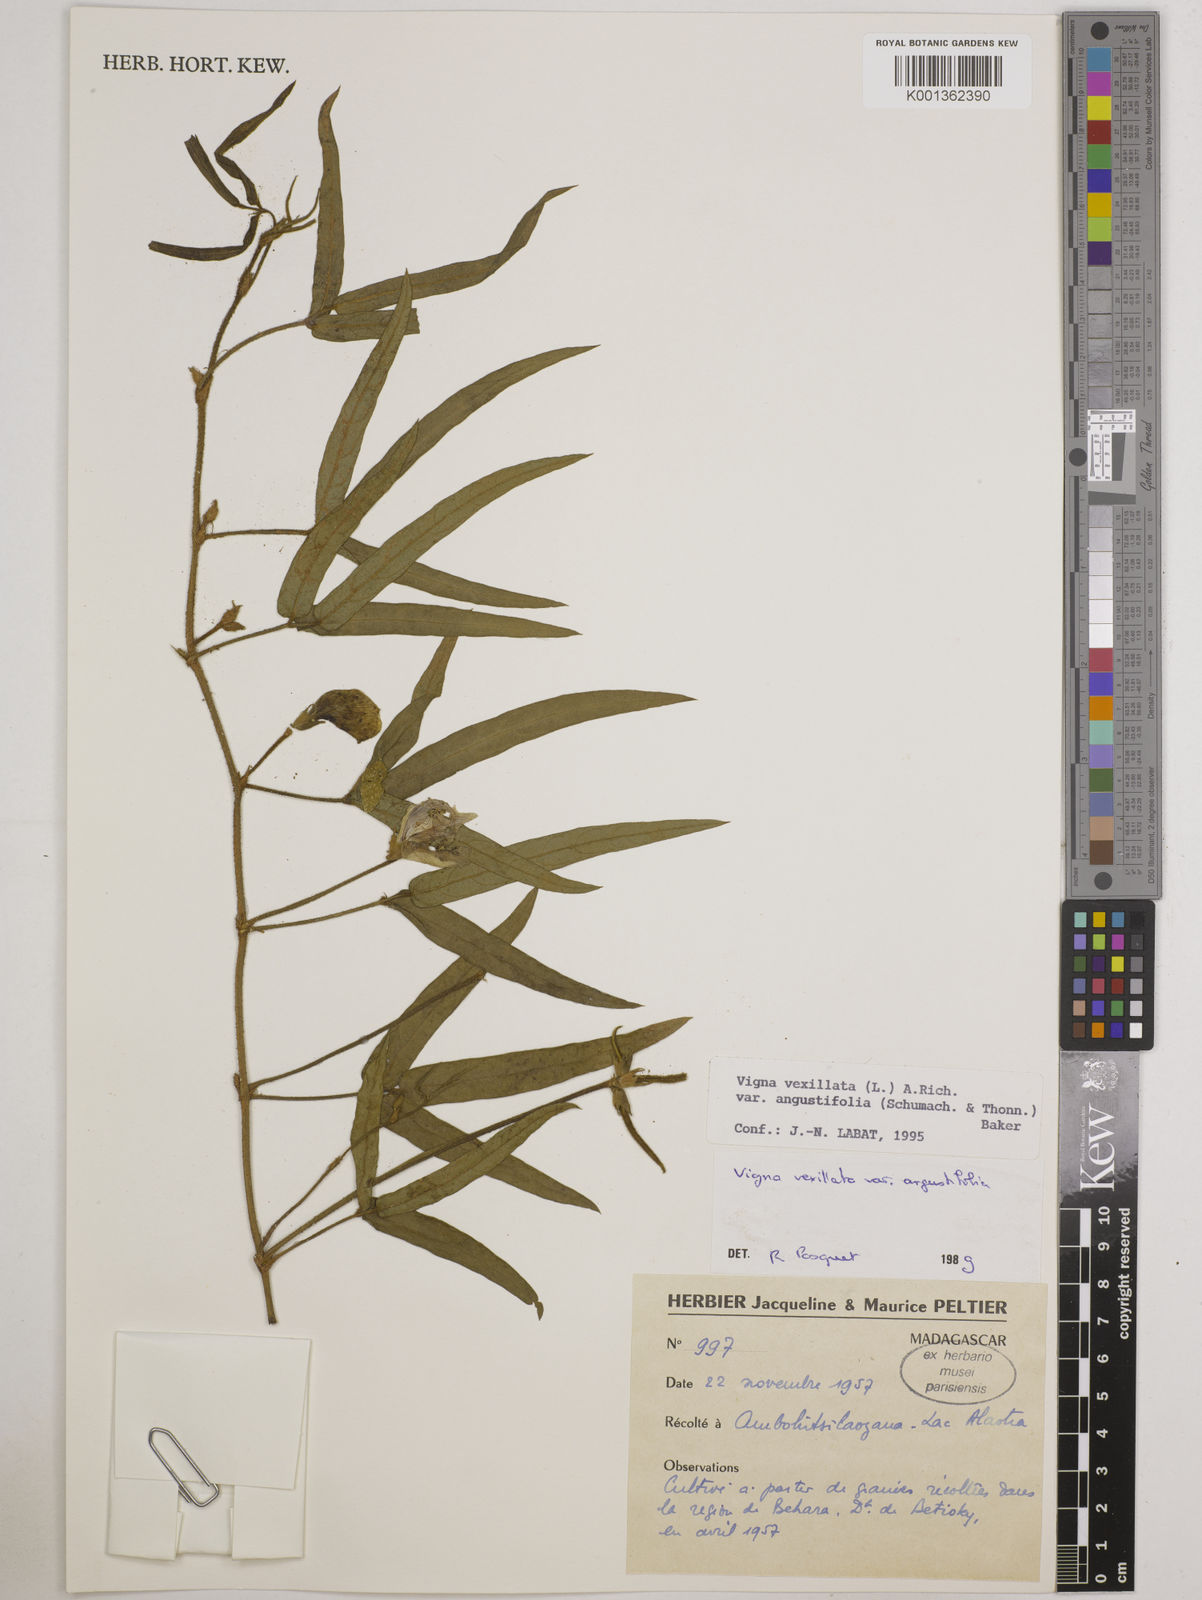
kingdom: Plantae
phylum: Tracheophyta
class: Magnoliopsida
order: Fabales
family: Fabaceae
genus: Vigna
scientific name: Vigna vexillata
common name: Zombi pea
